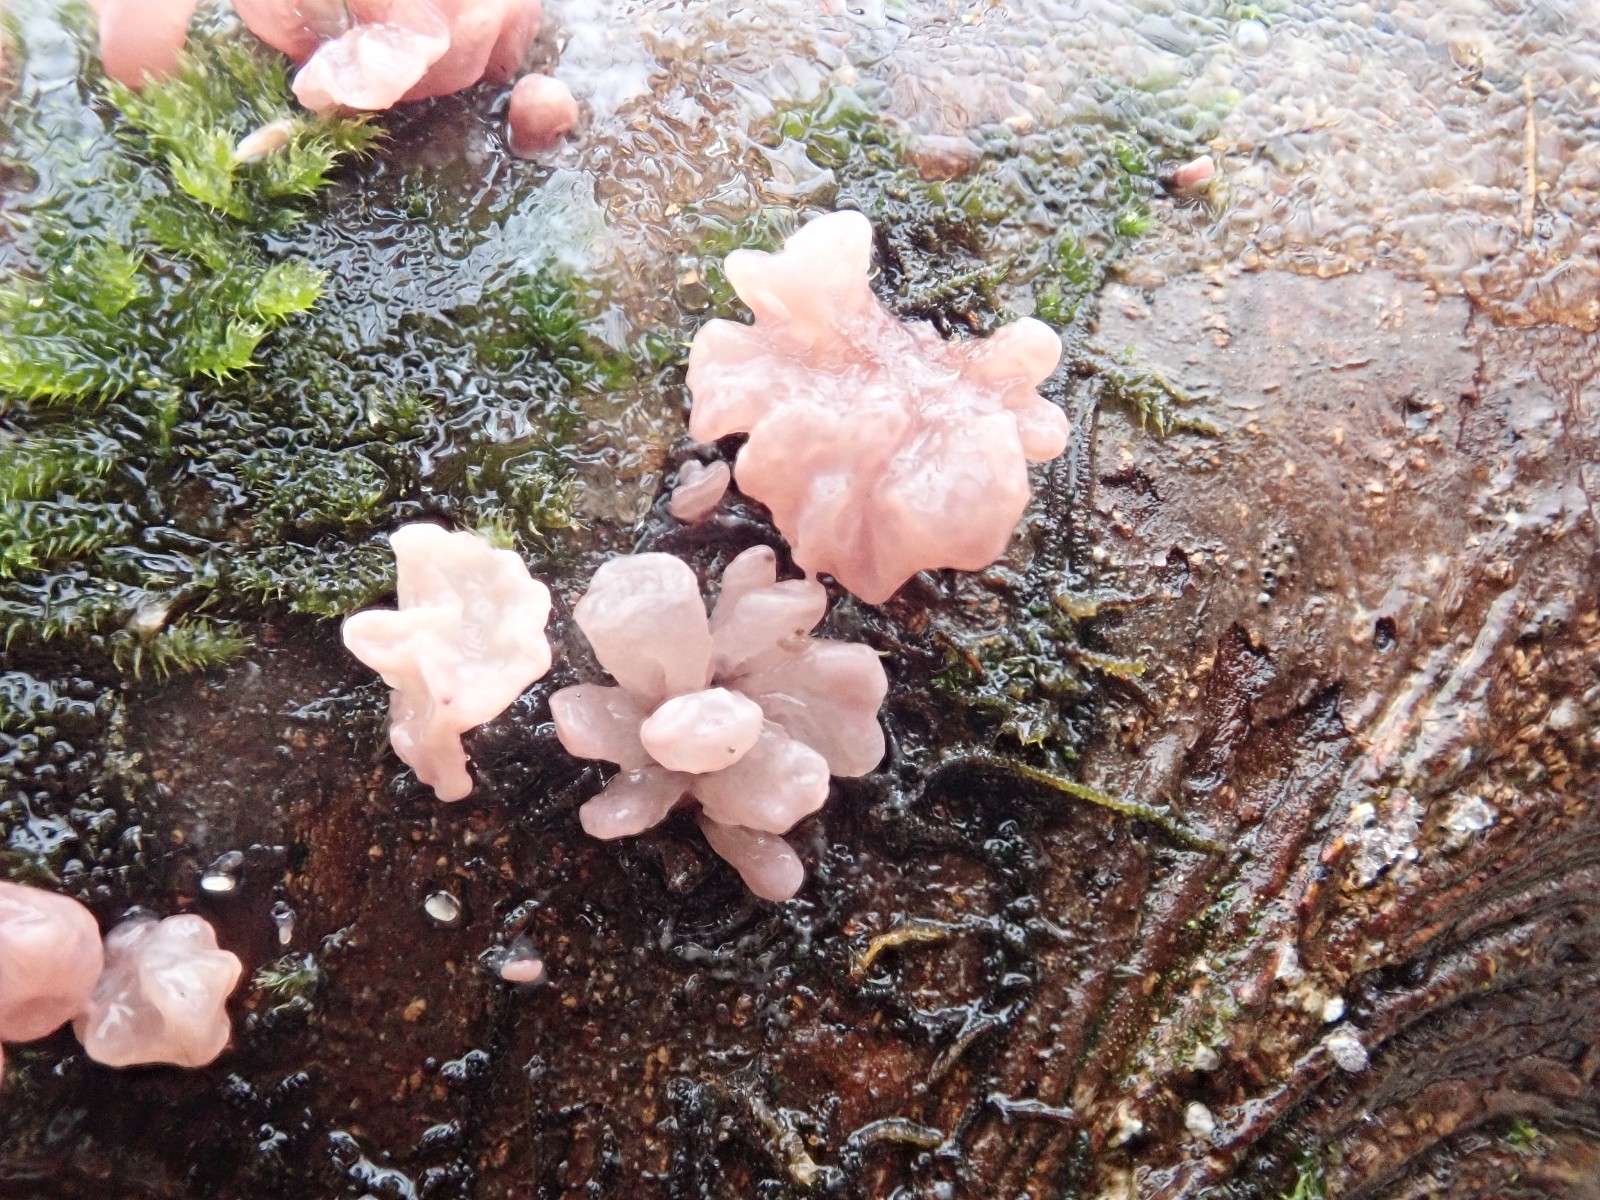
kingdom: Fungi
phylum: Ascomycota
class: Leotiomycetes
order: Helotiales
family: Gelatinodiscaceae
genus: Ascocoryne
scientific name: Ascocoryne sarcoides
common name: rødlilla sejskive
